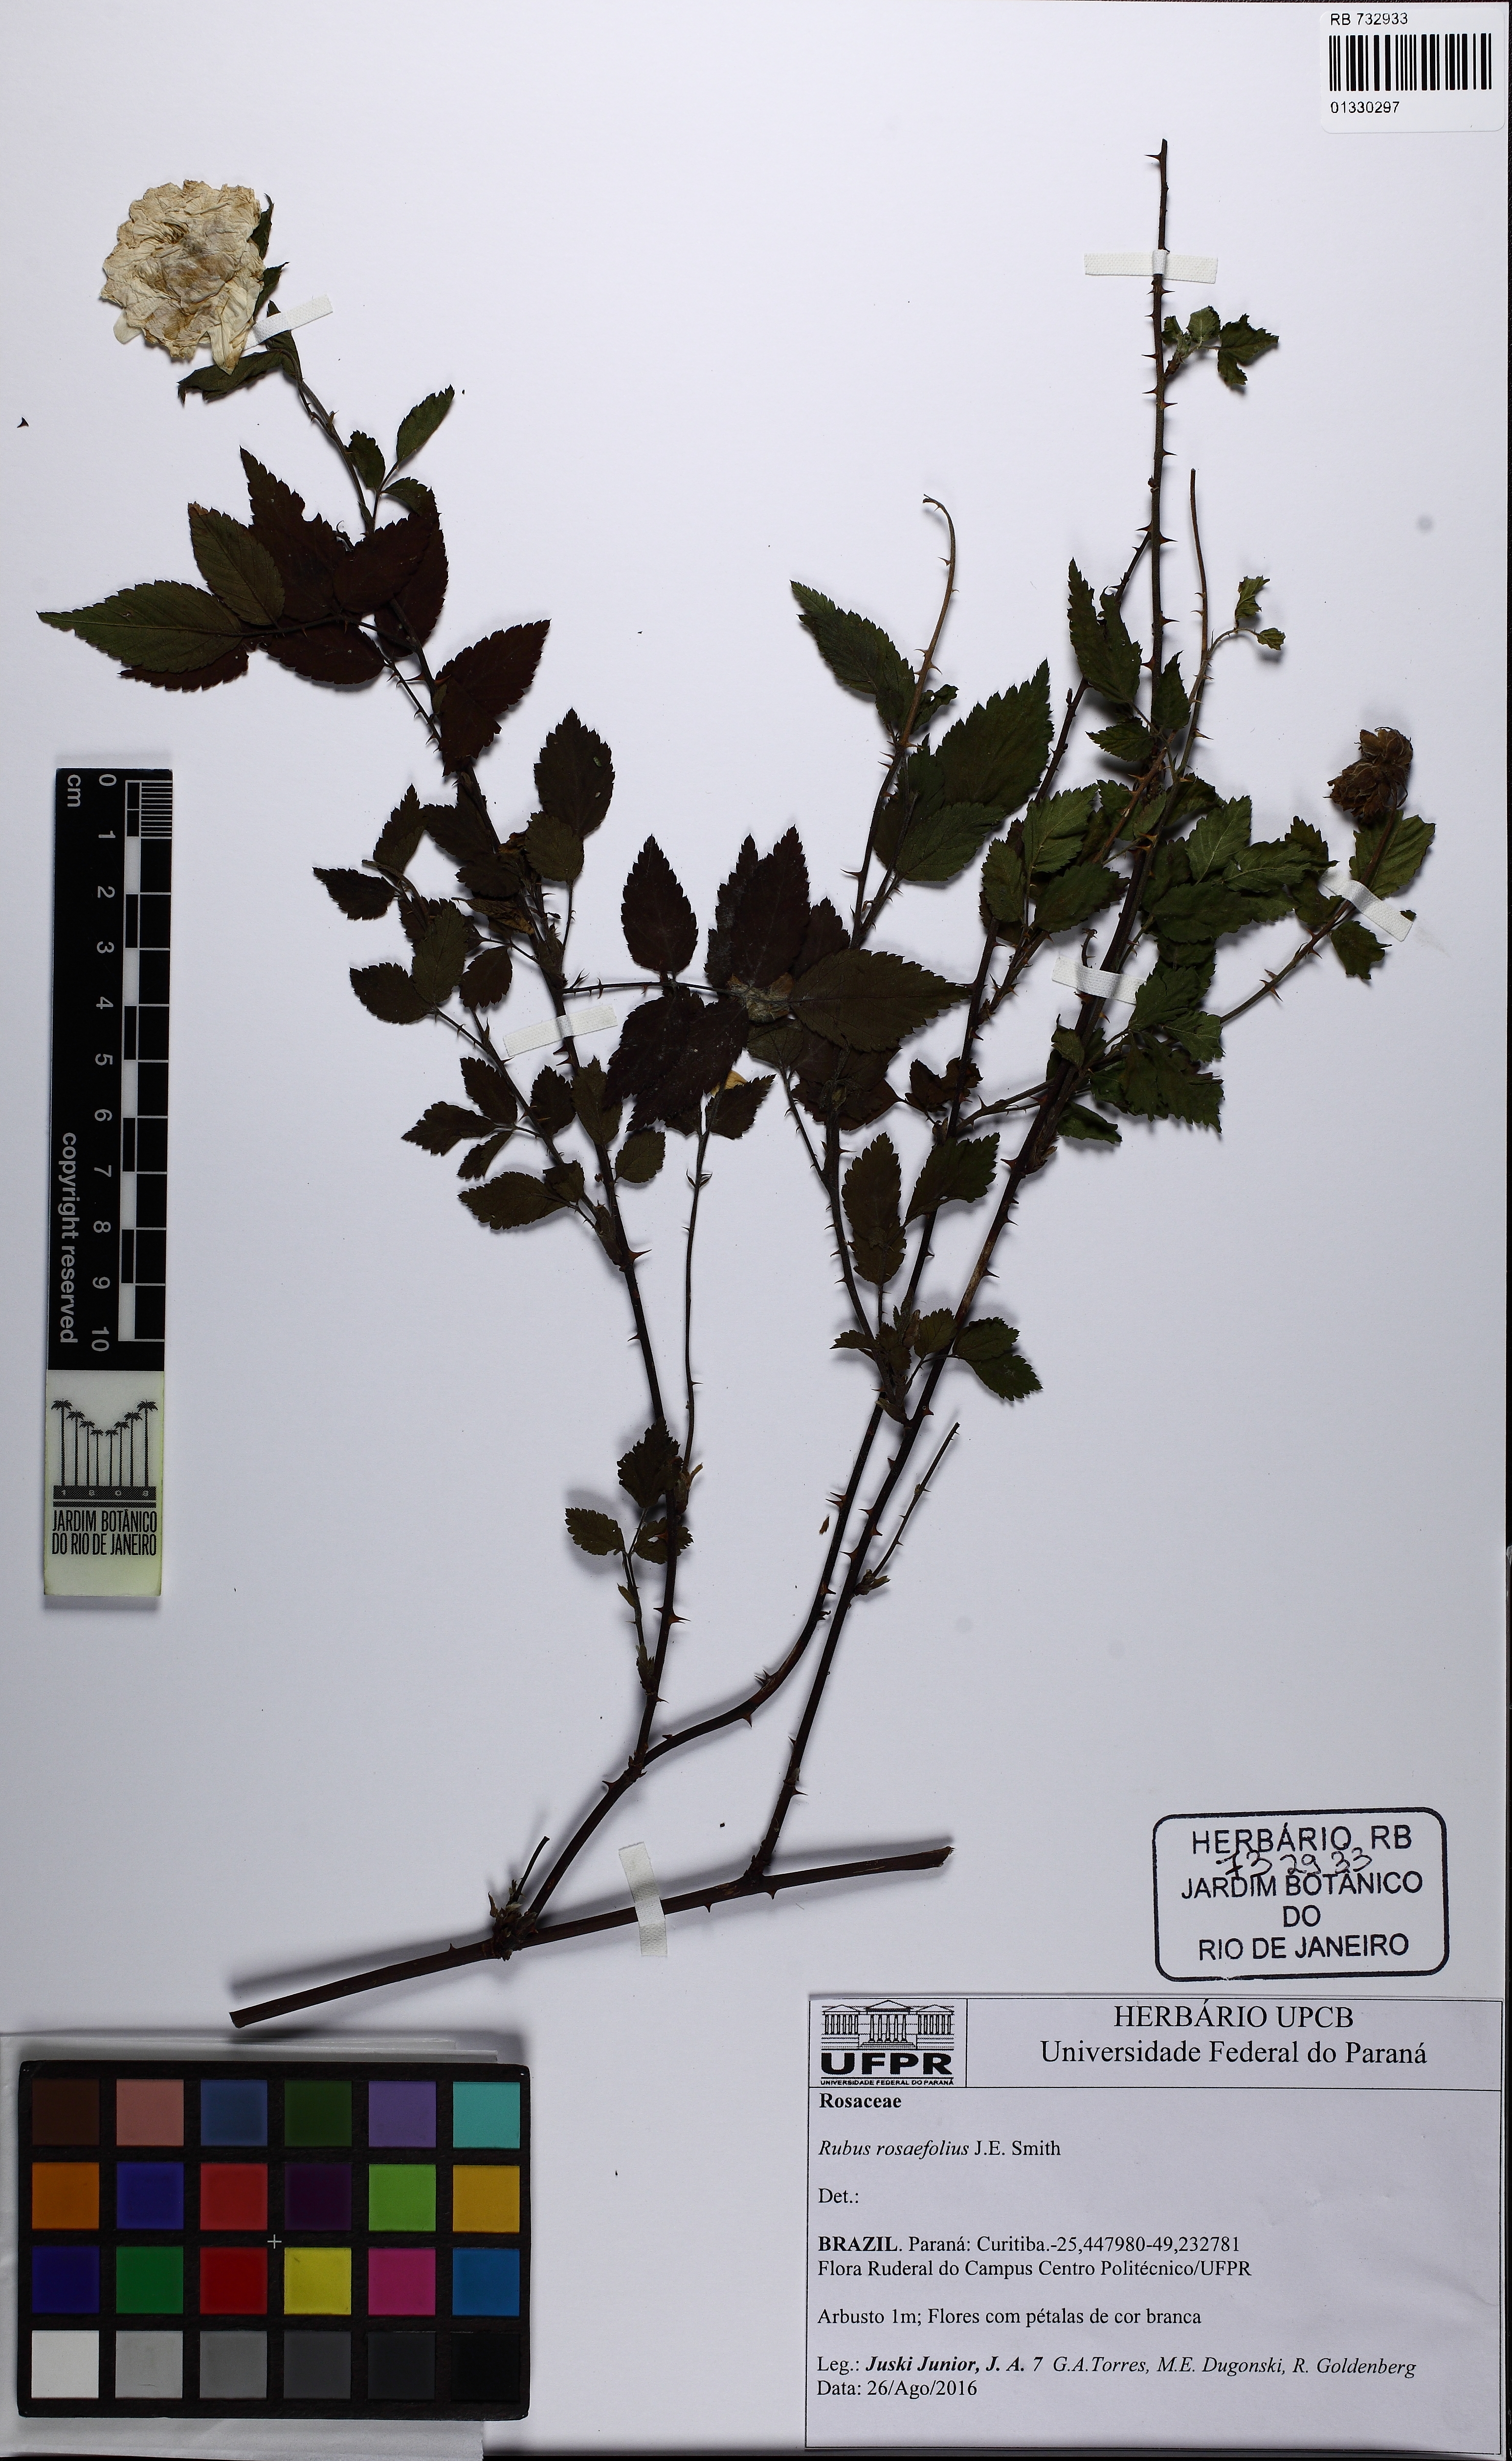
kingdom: Plantae
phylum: Tracheophyta
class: Magnoliopsida
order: Rosales
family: Rosaceae
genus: Rubus
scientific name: Rubus rosifolius
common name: Roseleaf raspberry
